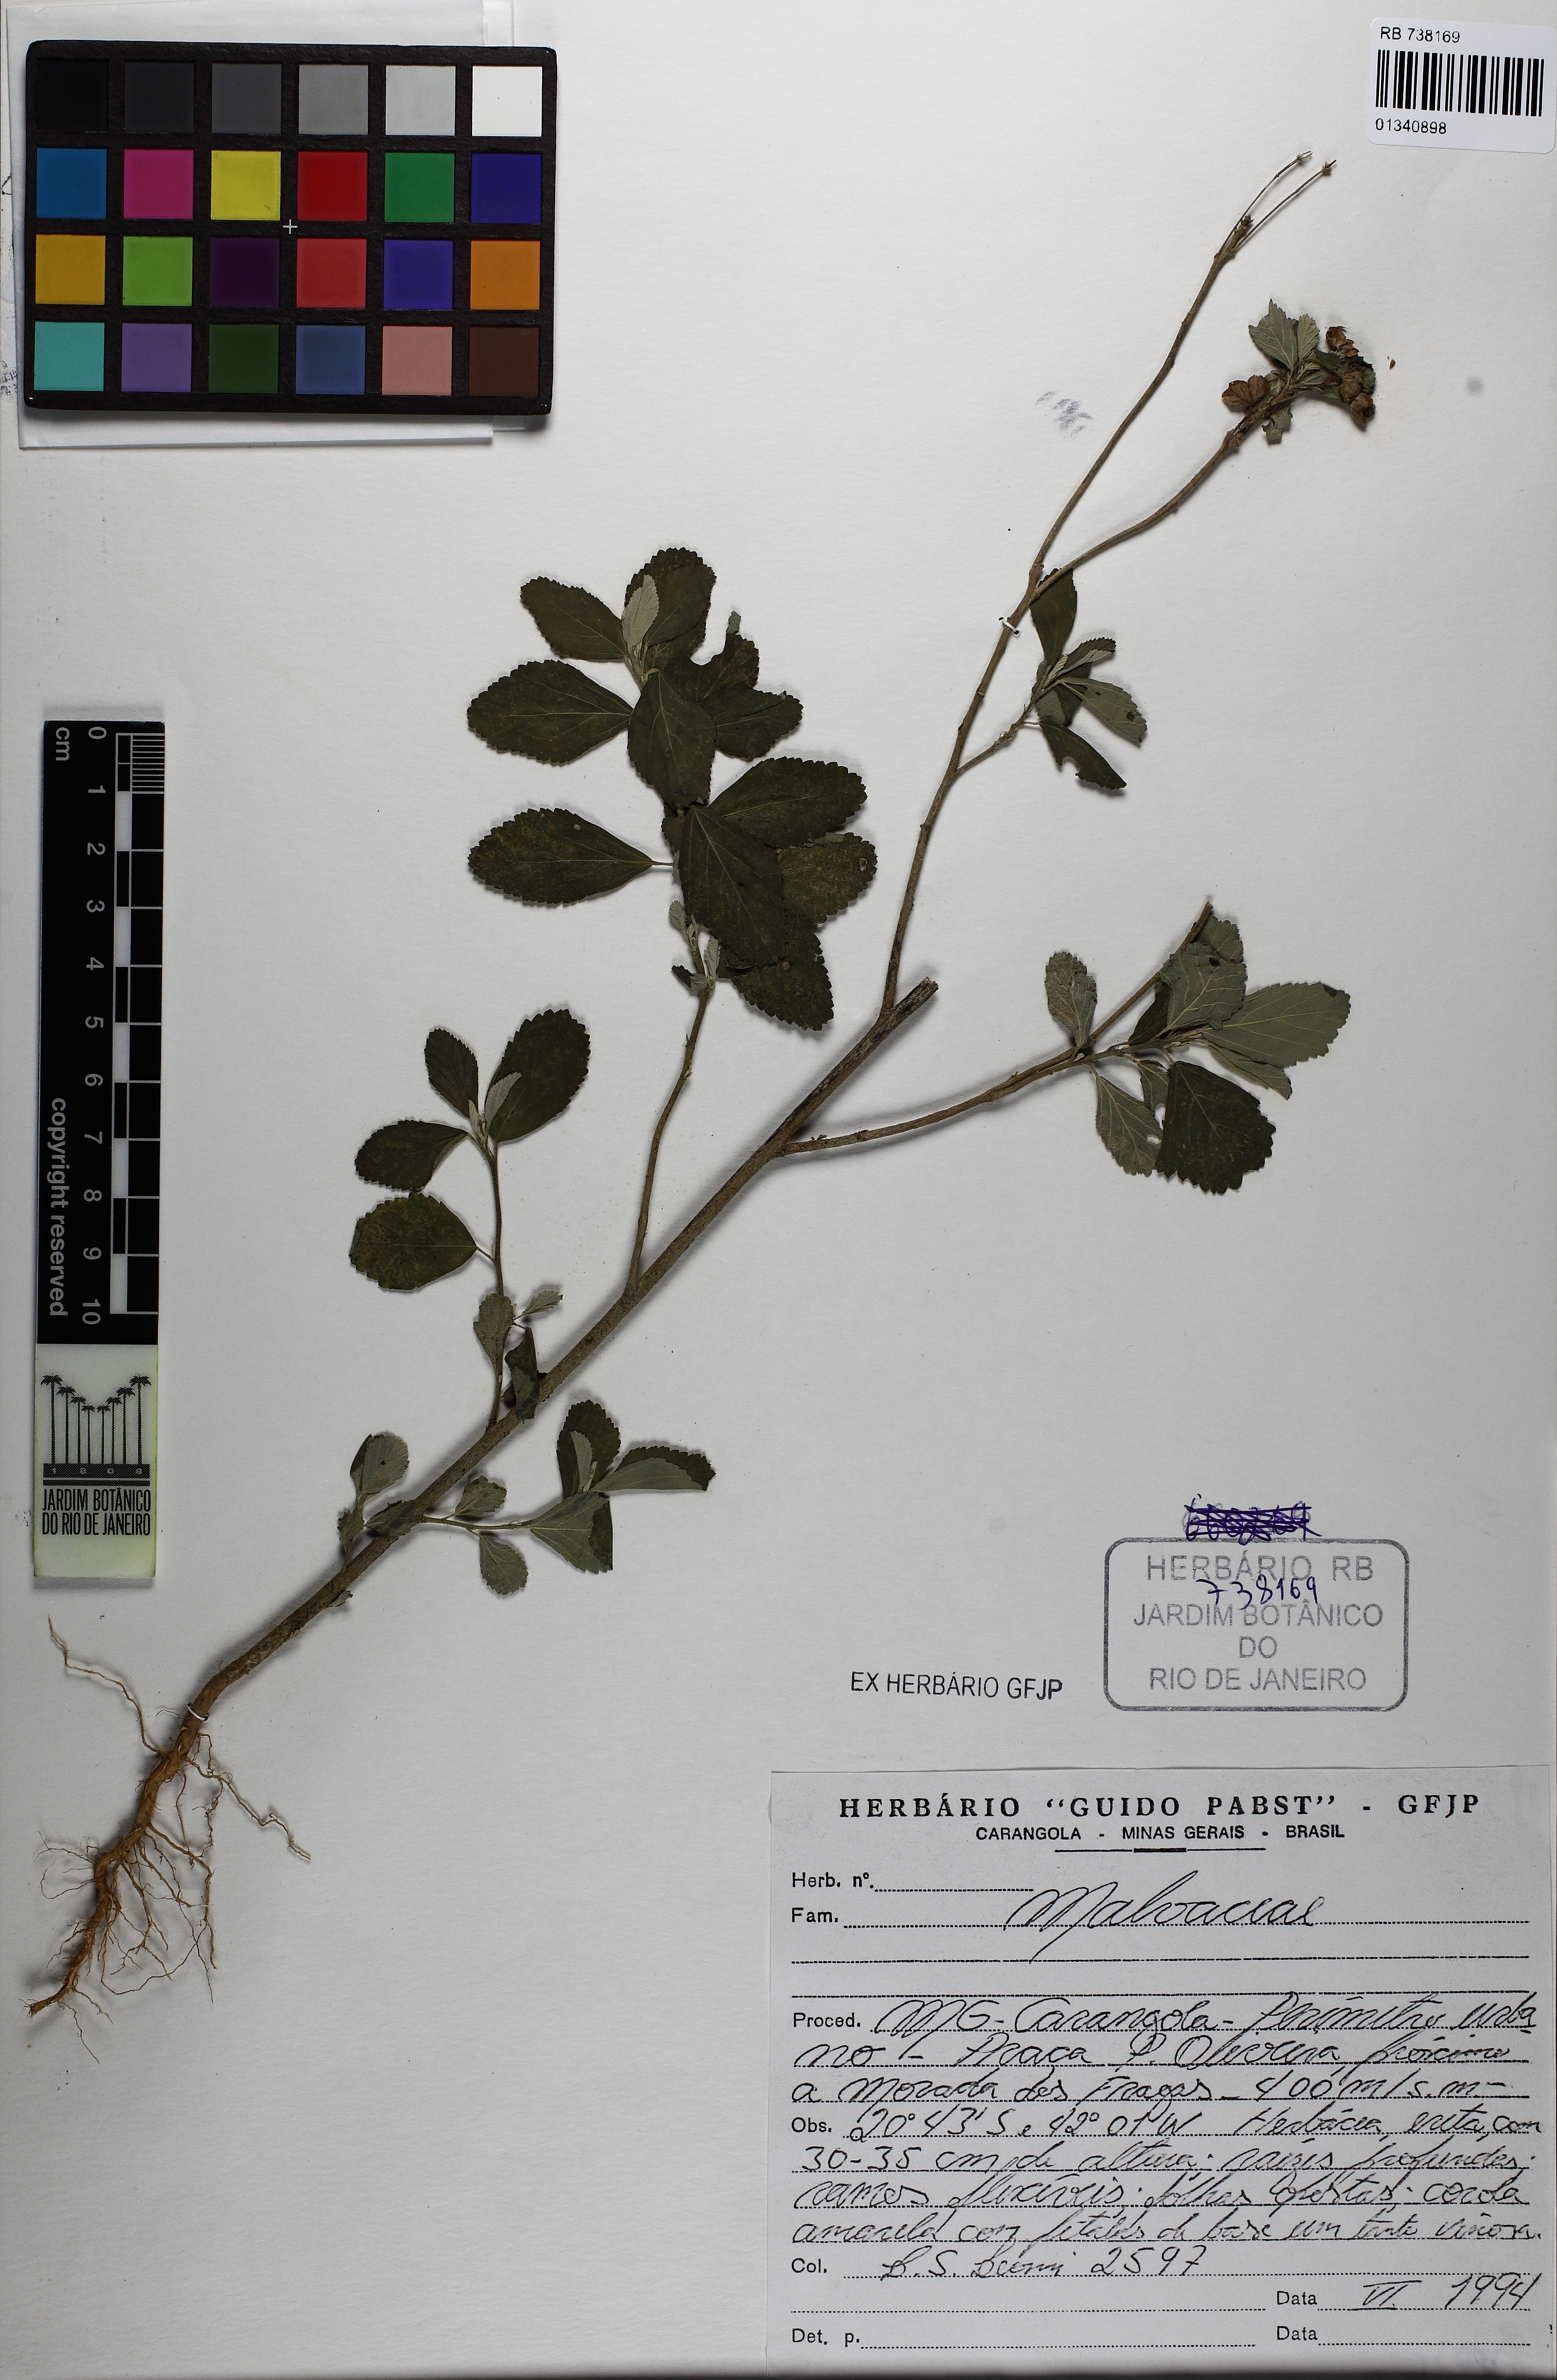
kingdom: Plantae
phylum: Tracheophyta
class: Magnoliopsida
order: Malvales
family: Malvaceae
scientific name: Malvaceae
